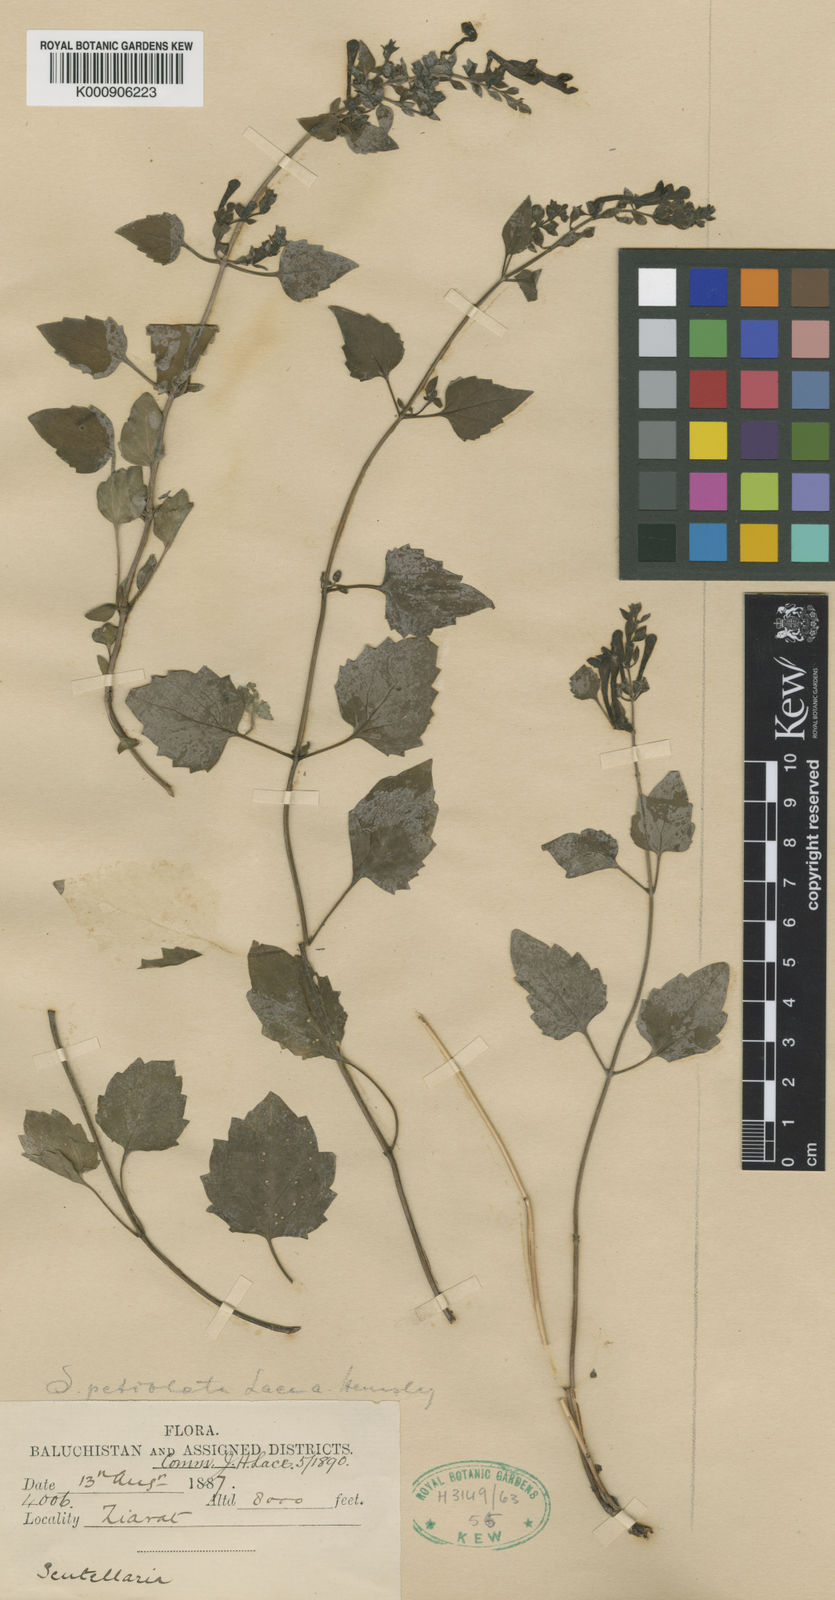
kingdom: Plantae
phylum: Tracheophyta
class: Magnoliopsida
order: Lamiales
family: Lamiaceae
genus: Scutellaria
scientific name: Scutellaria petiolata
